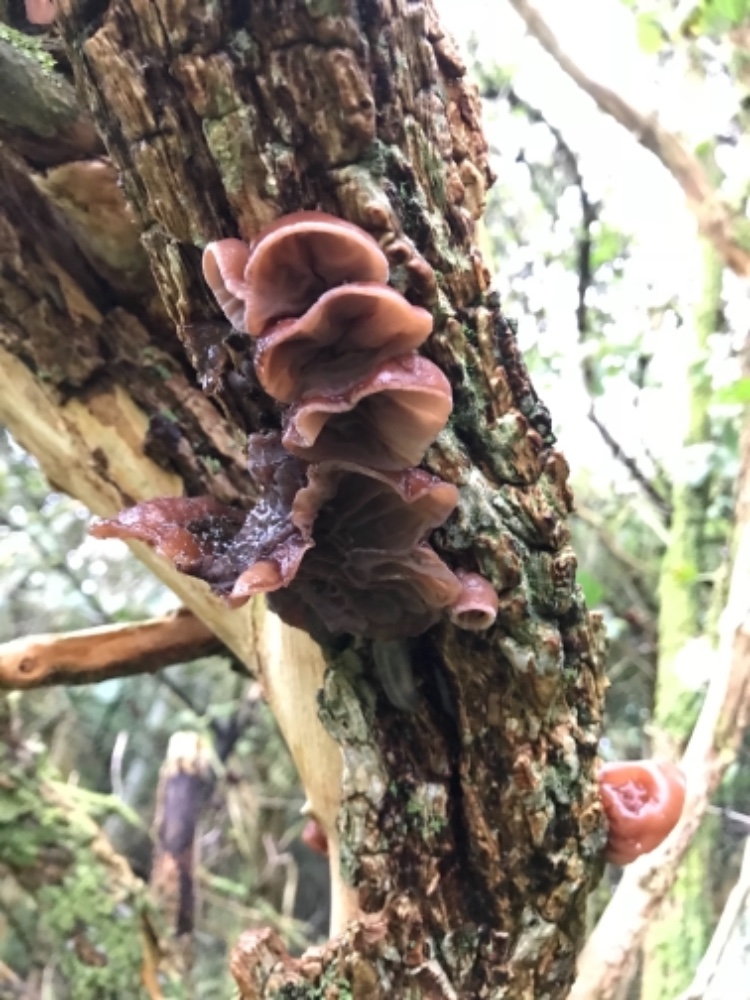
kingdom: Fungi
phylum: Basidiomycota
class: Agaricomycetes
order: Auriculariales
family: Auriculariaceae
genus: Auricularia
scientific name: Auricularia auricula-judae
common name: almindelig judasøre
